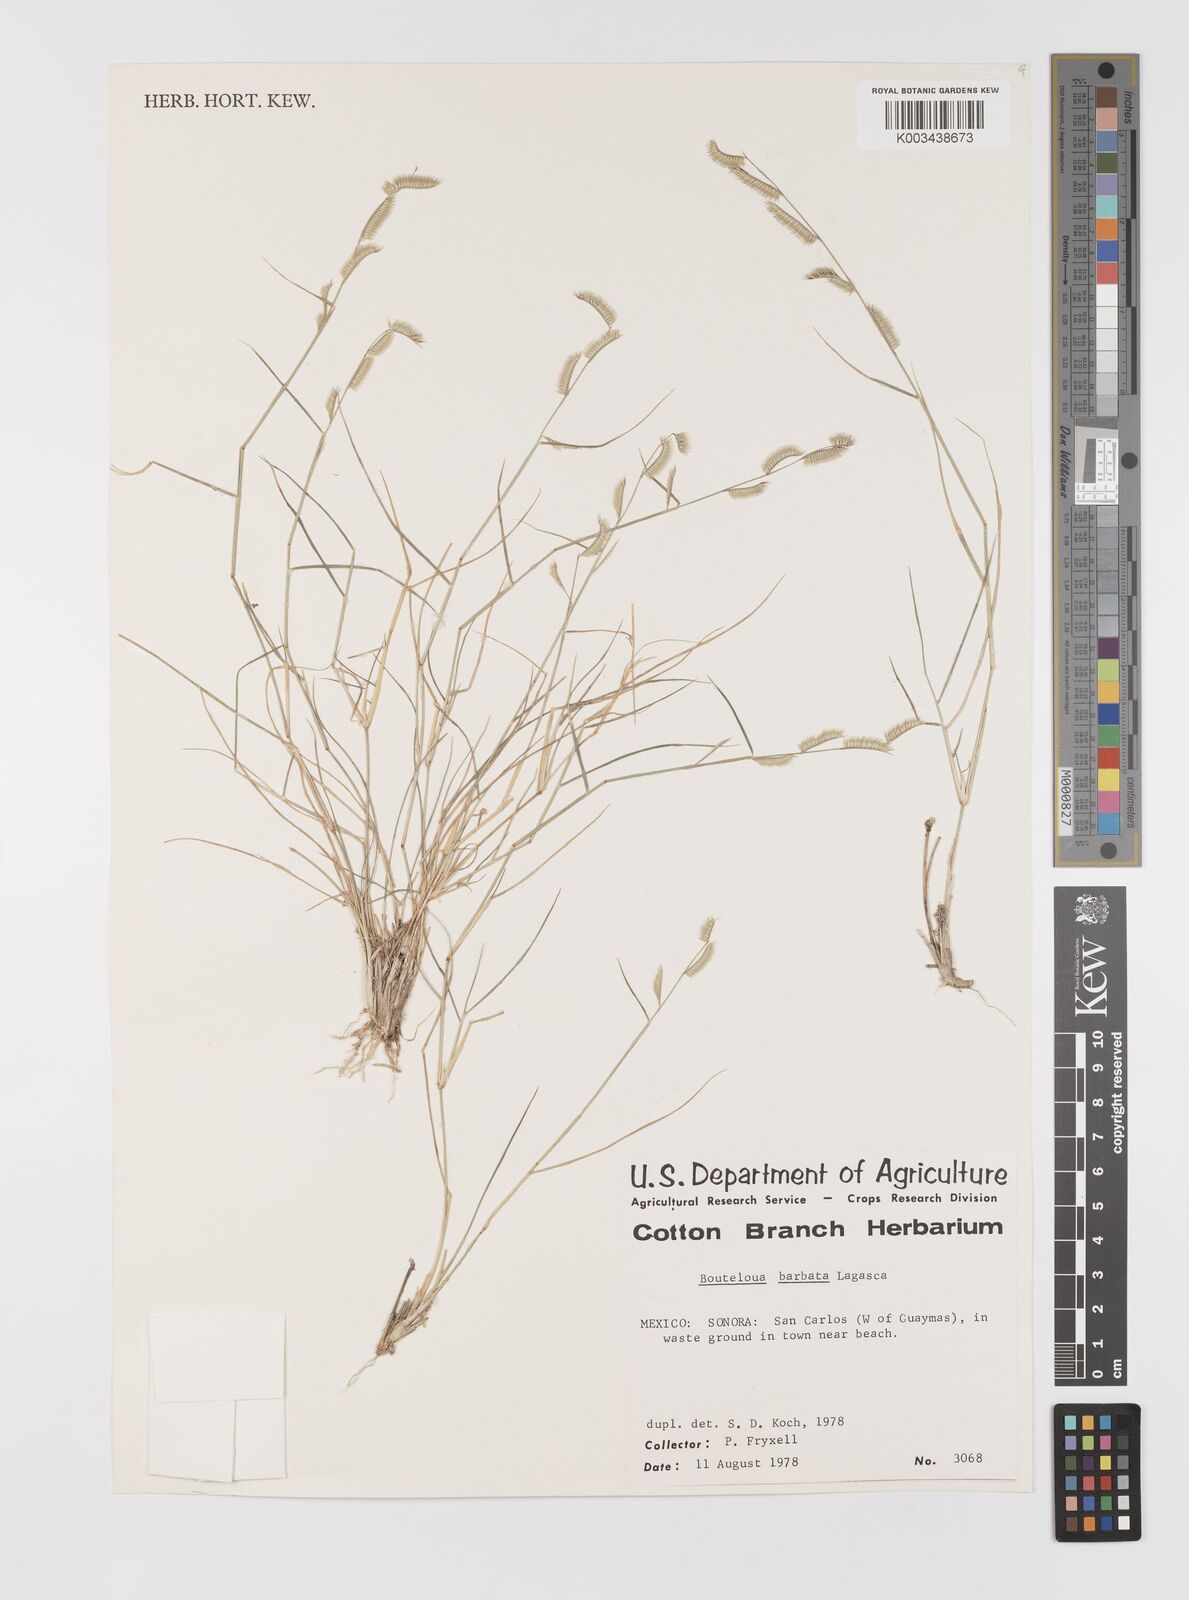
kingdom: Plantae
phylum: Tracheophyta
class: Liliopsida
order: Poales
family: Poaceae
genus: Bouteloua
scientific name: Bouteloua
